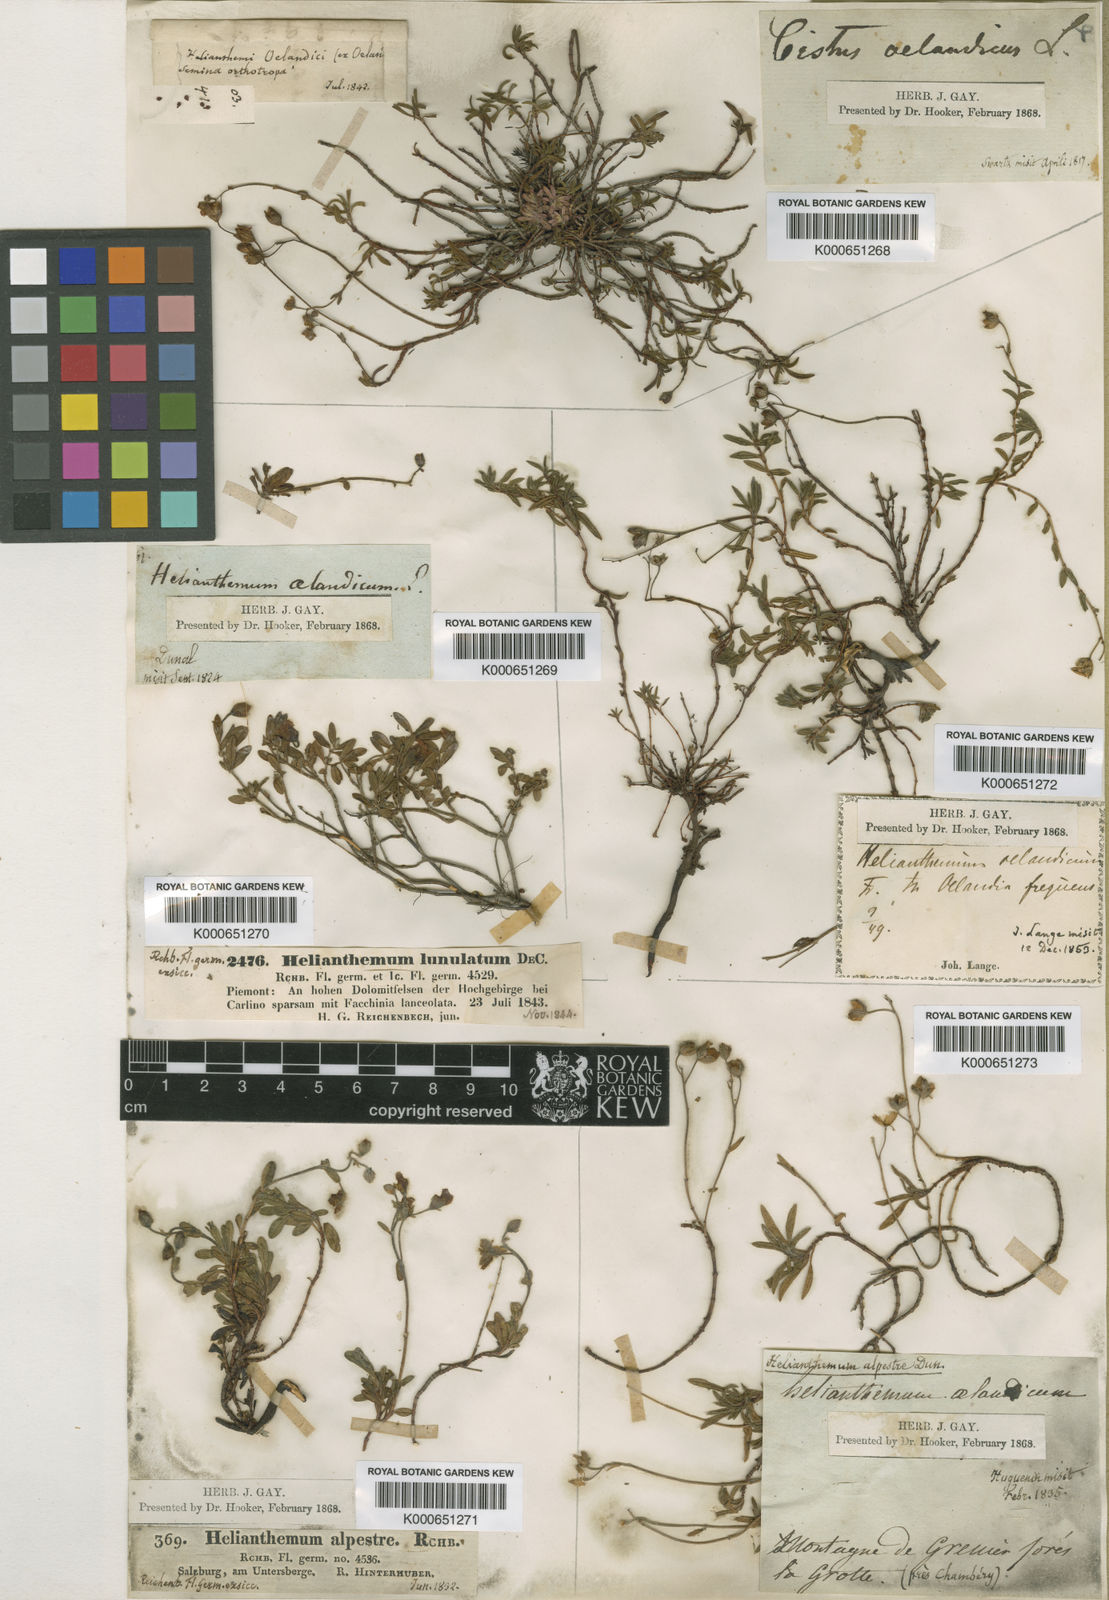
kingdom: Plantae
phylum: Tracheophyta
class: Magnoliopsida
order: Malvales
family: Cistaceae
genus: Helianthemum
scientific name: Helianthemum
